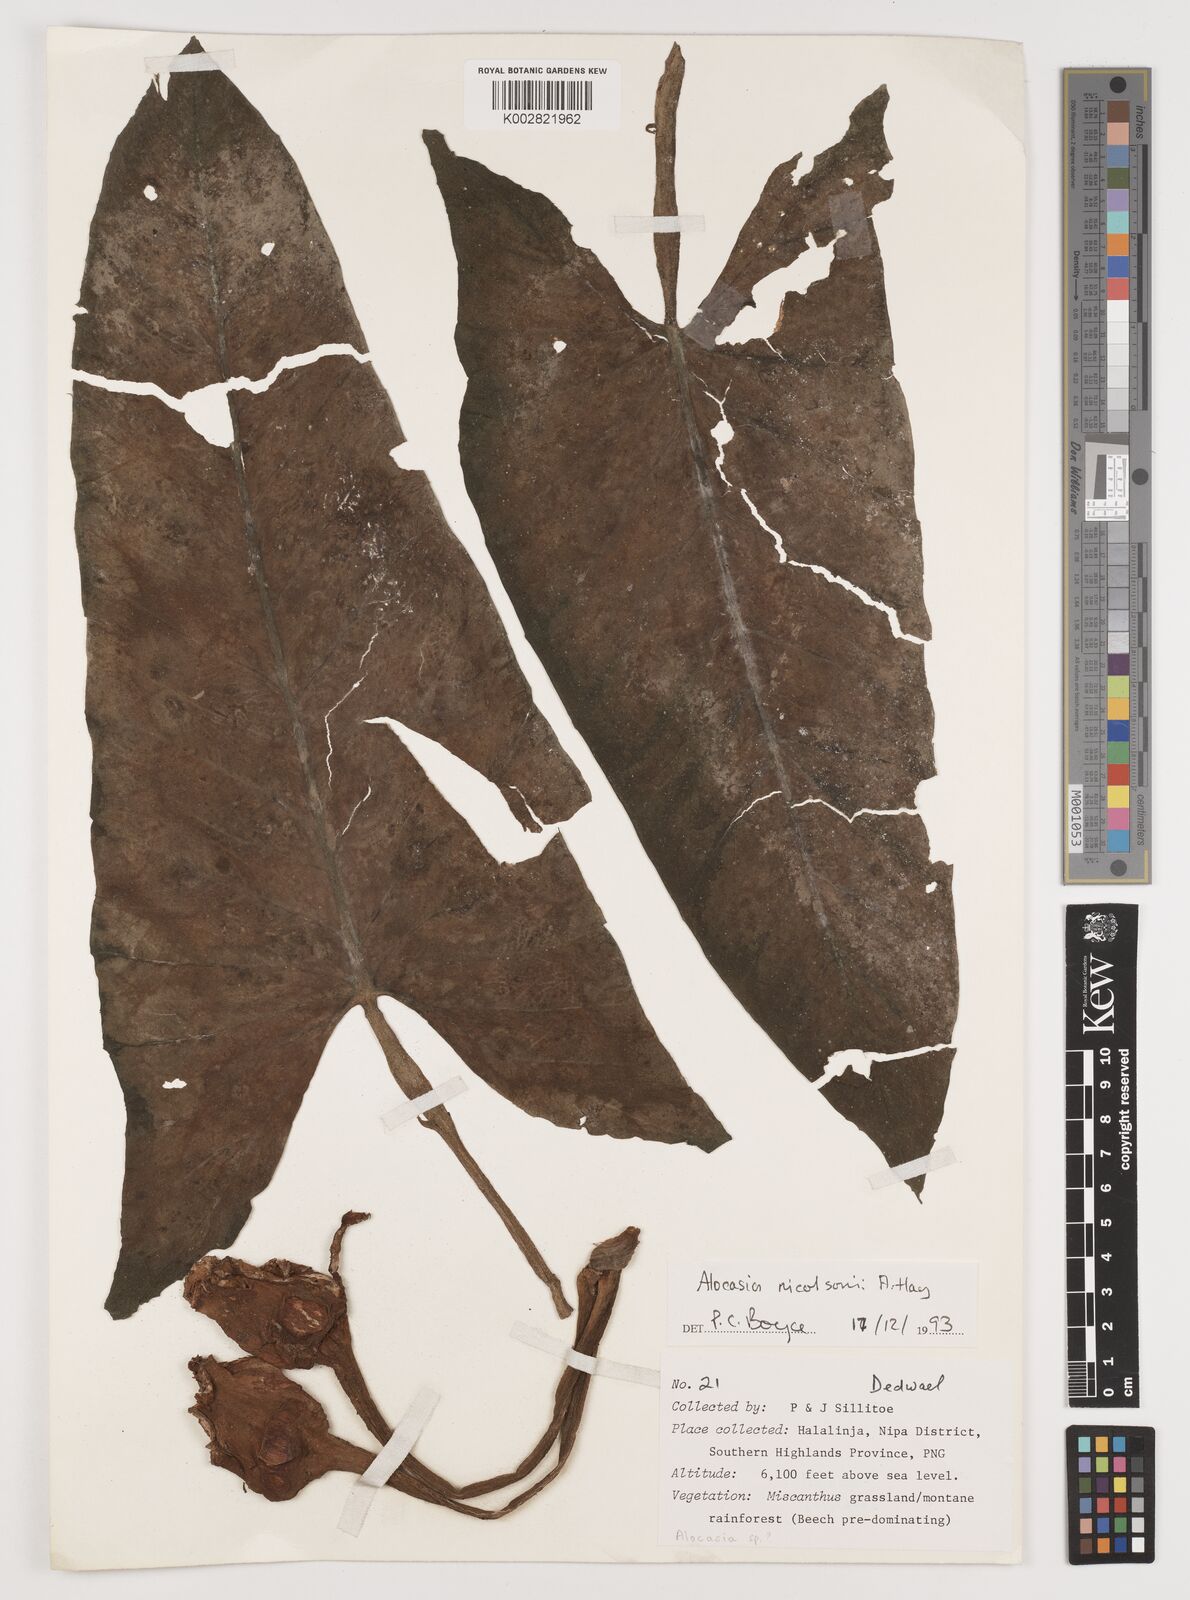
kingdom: Plantae
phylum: Tracheophyta
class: Liliopsida
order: Alismatales
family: Araceae
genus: Alocasia
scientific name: Alocasia nicolsonii
